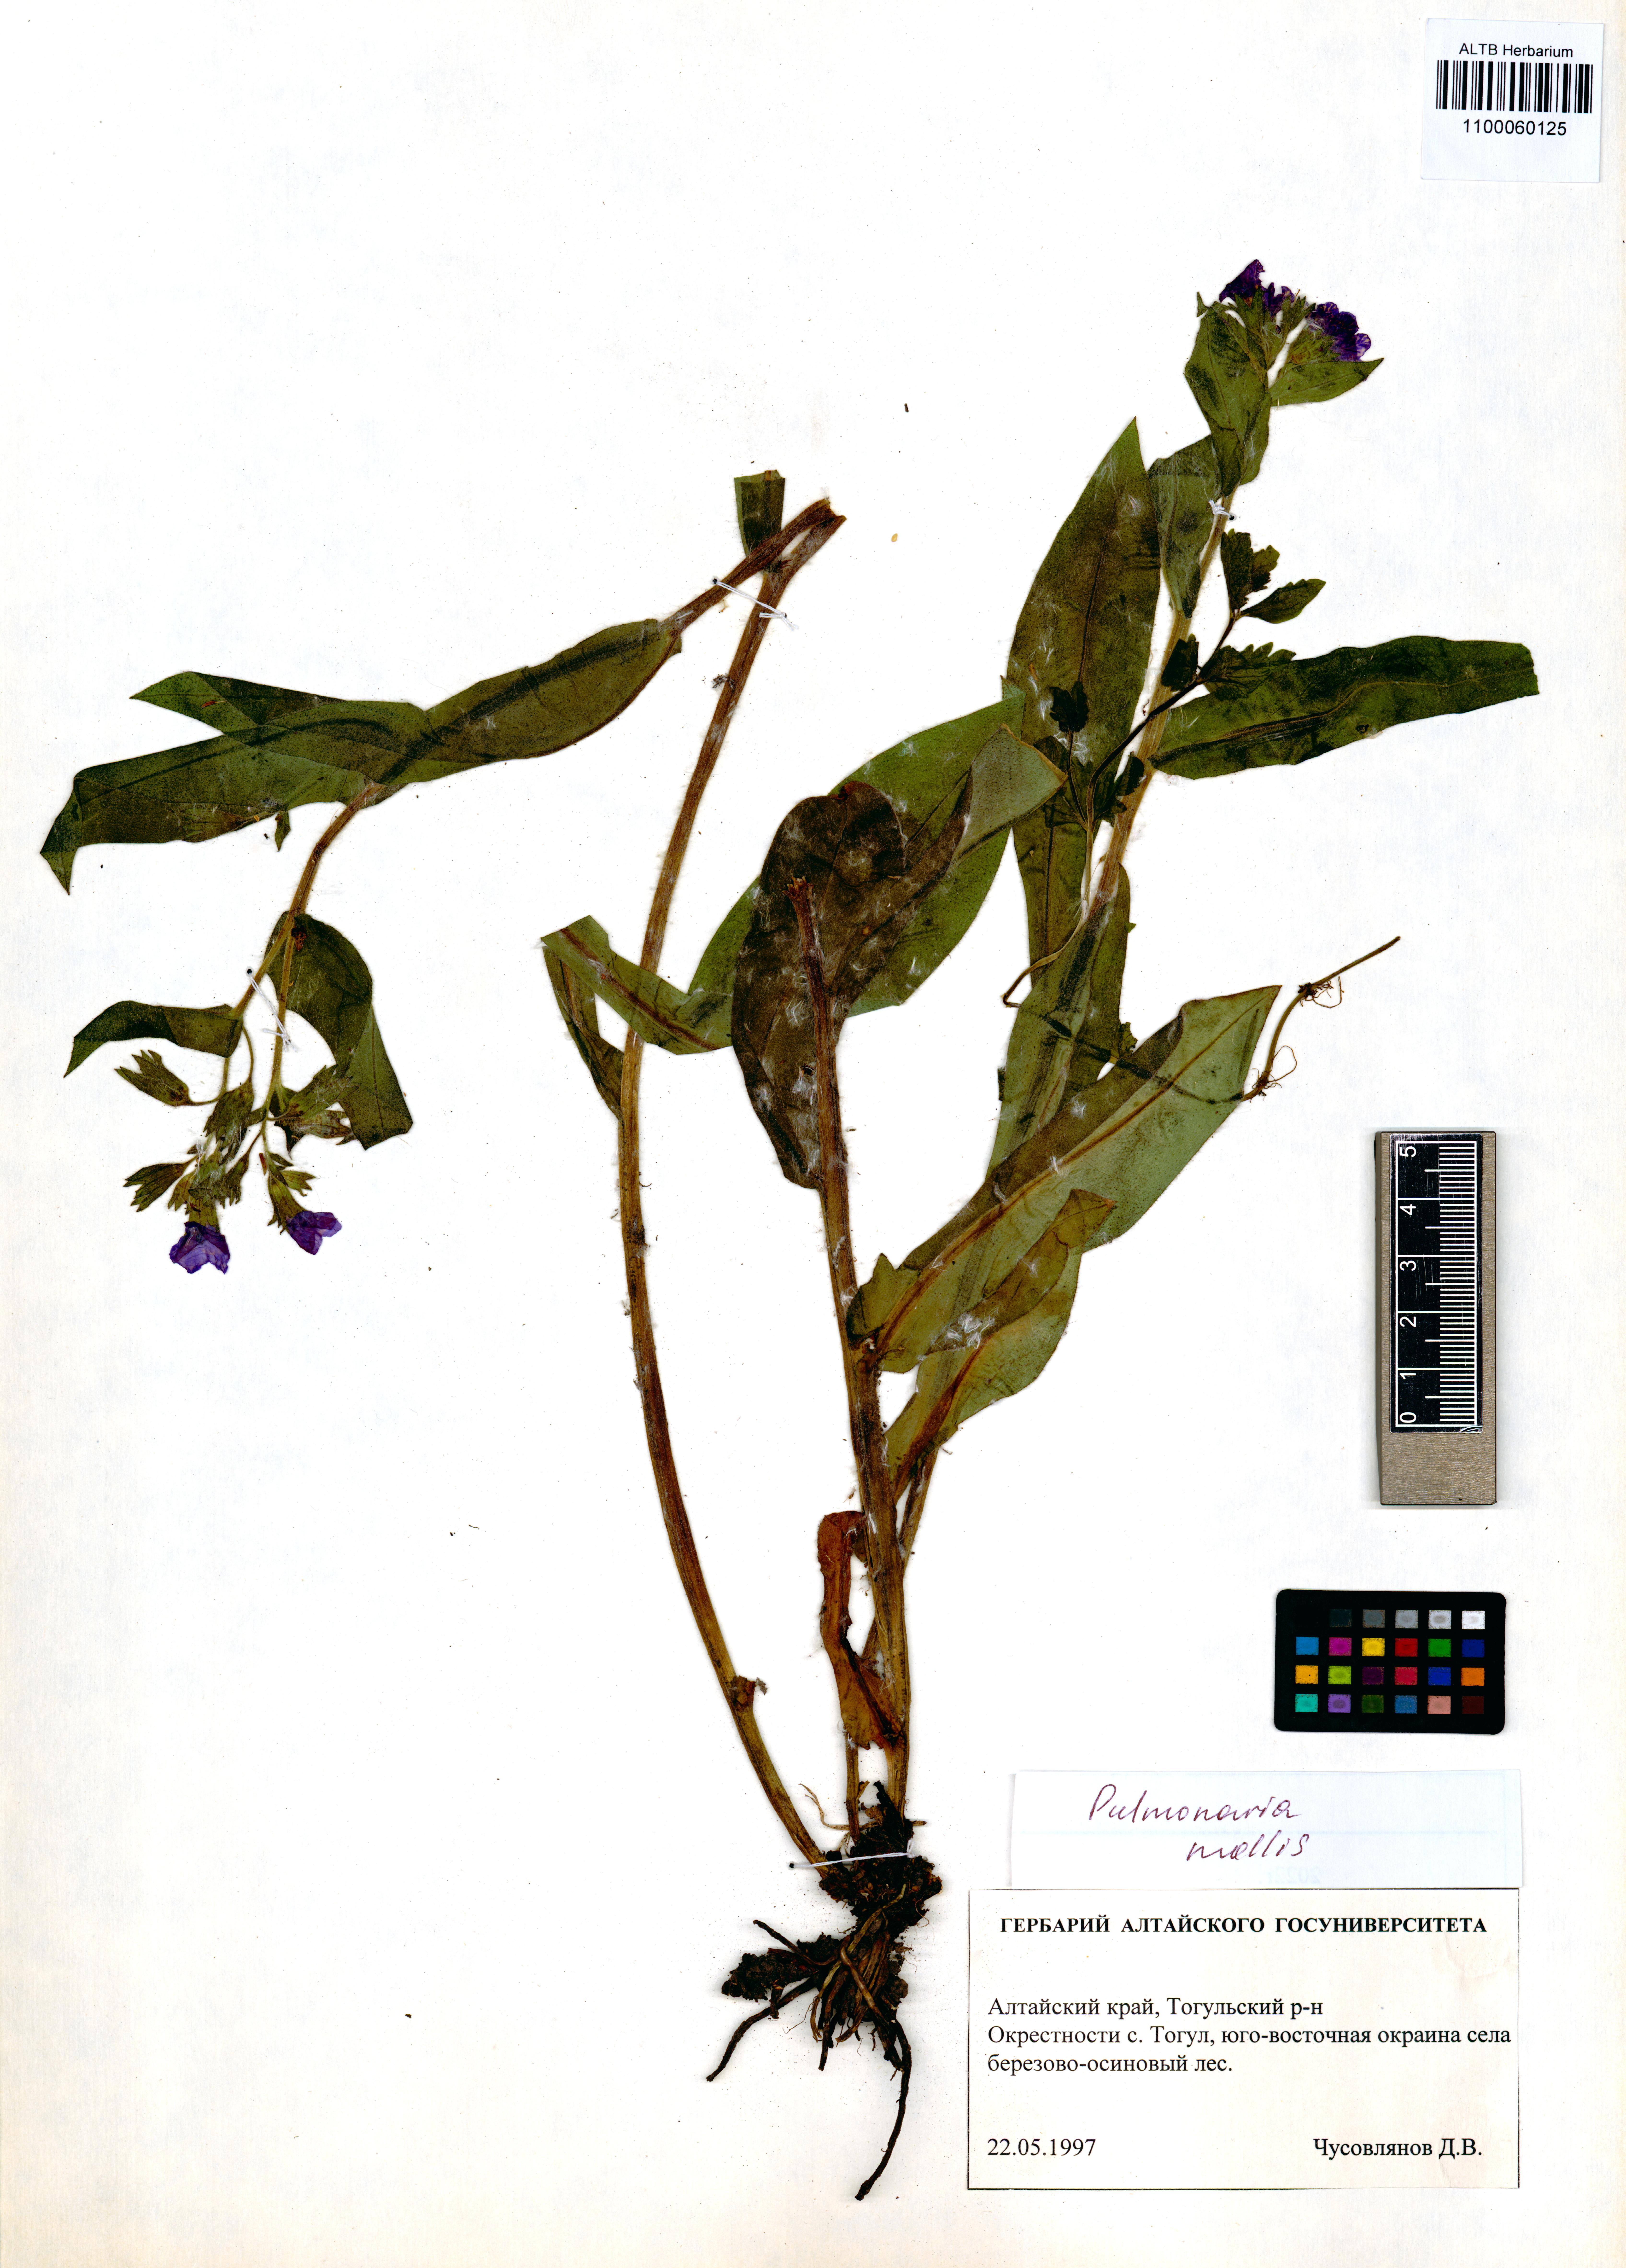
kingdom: Plantae
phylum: Tracheophyta
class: Magnoliopsida
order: Boraginales
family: Boraginaceae
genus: Pulmonaria
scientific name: Pulmonaria mollis
